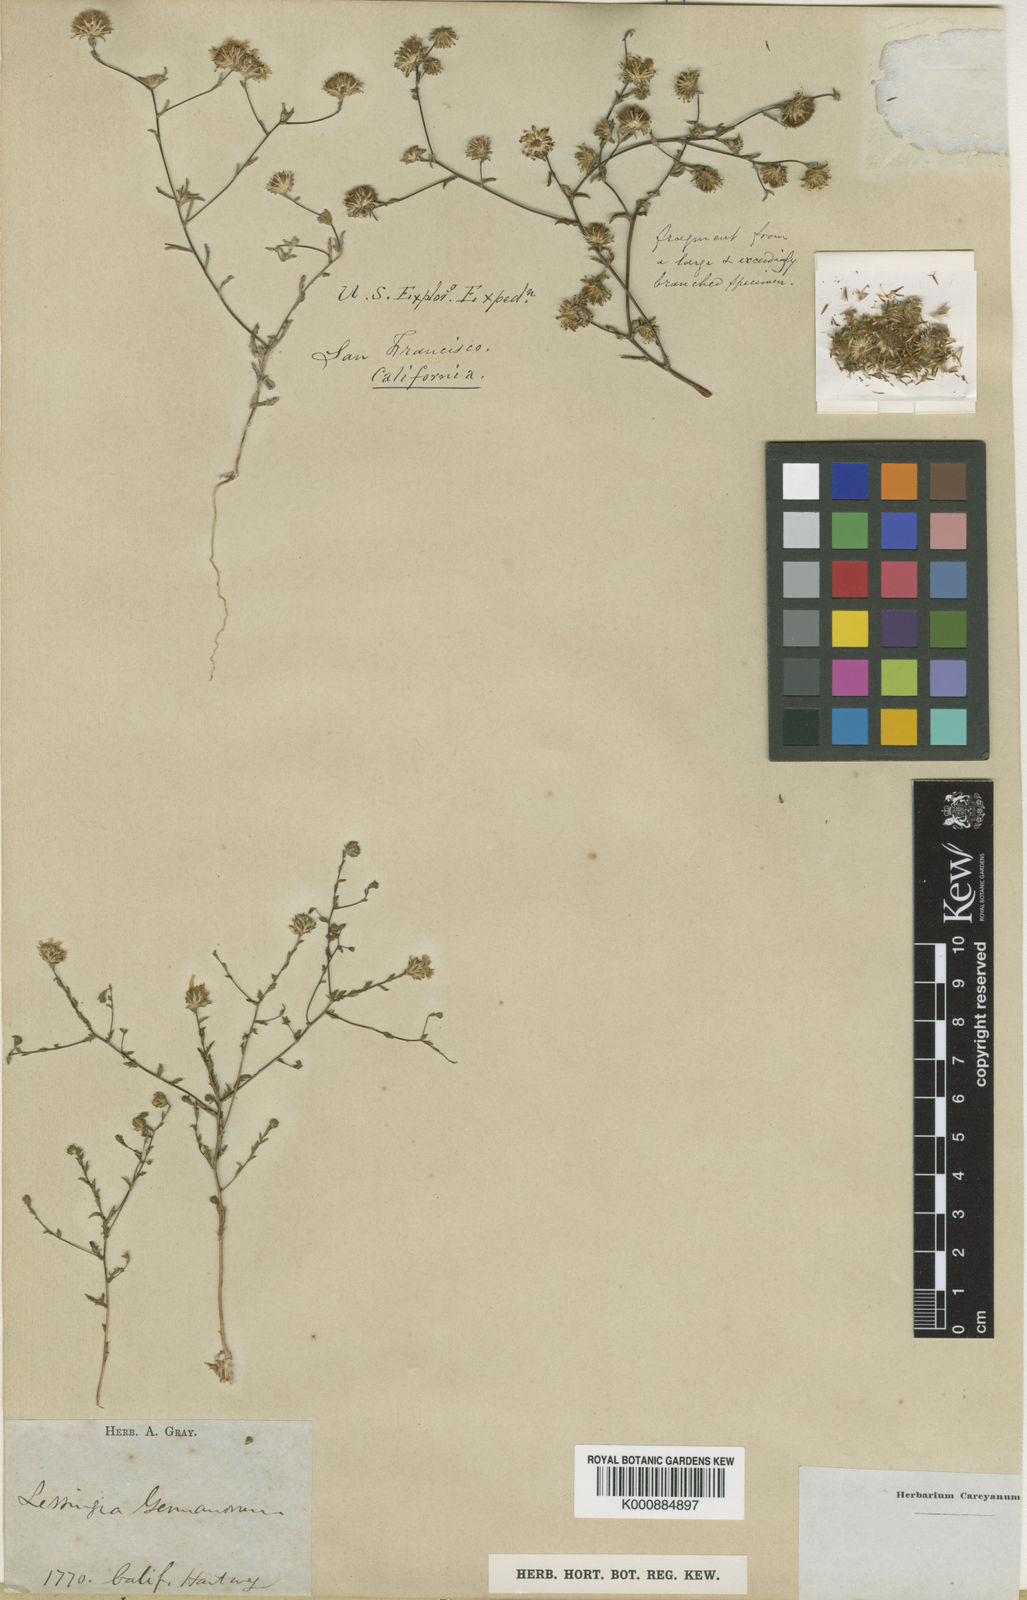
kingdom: Plantae
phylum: Tracheophyta
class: Magnoliopsida
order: Asterales
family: Asteraceae
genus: Lessingia
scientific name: Lessingia germanorum
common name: San francisco lessingia
